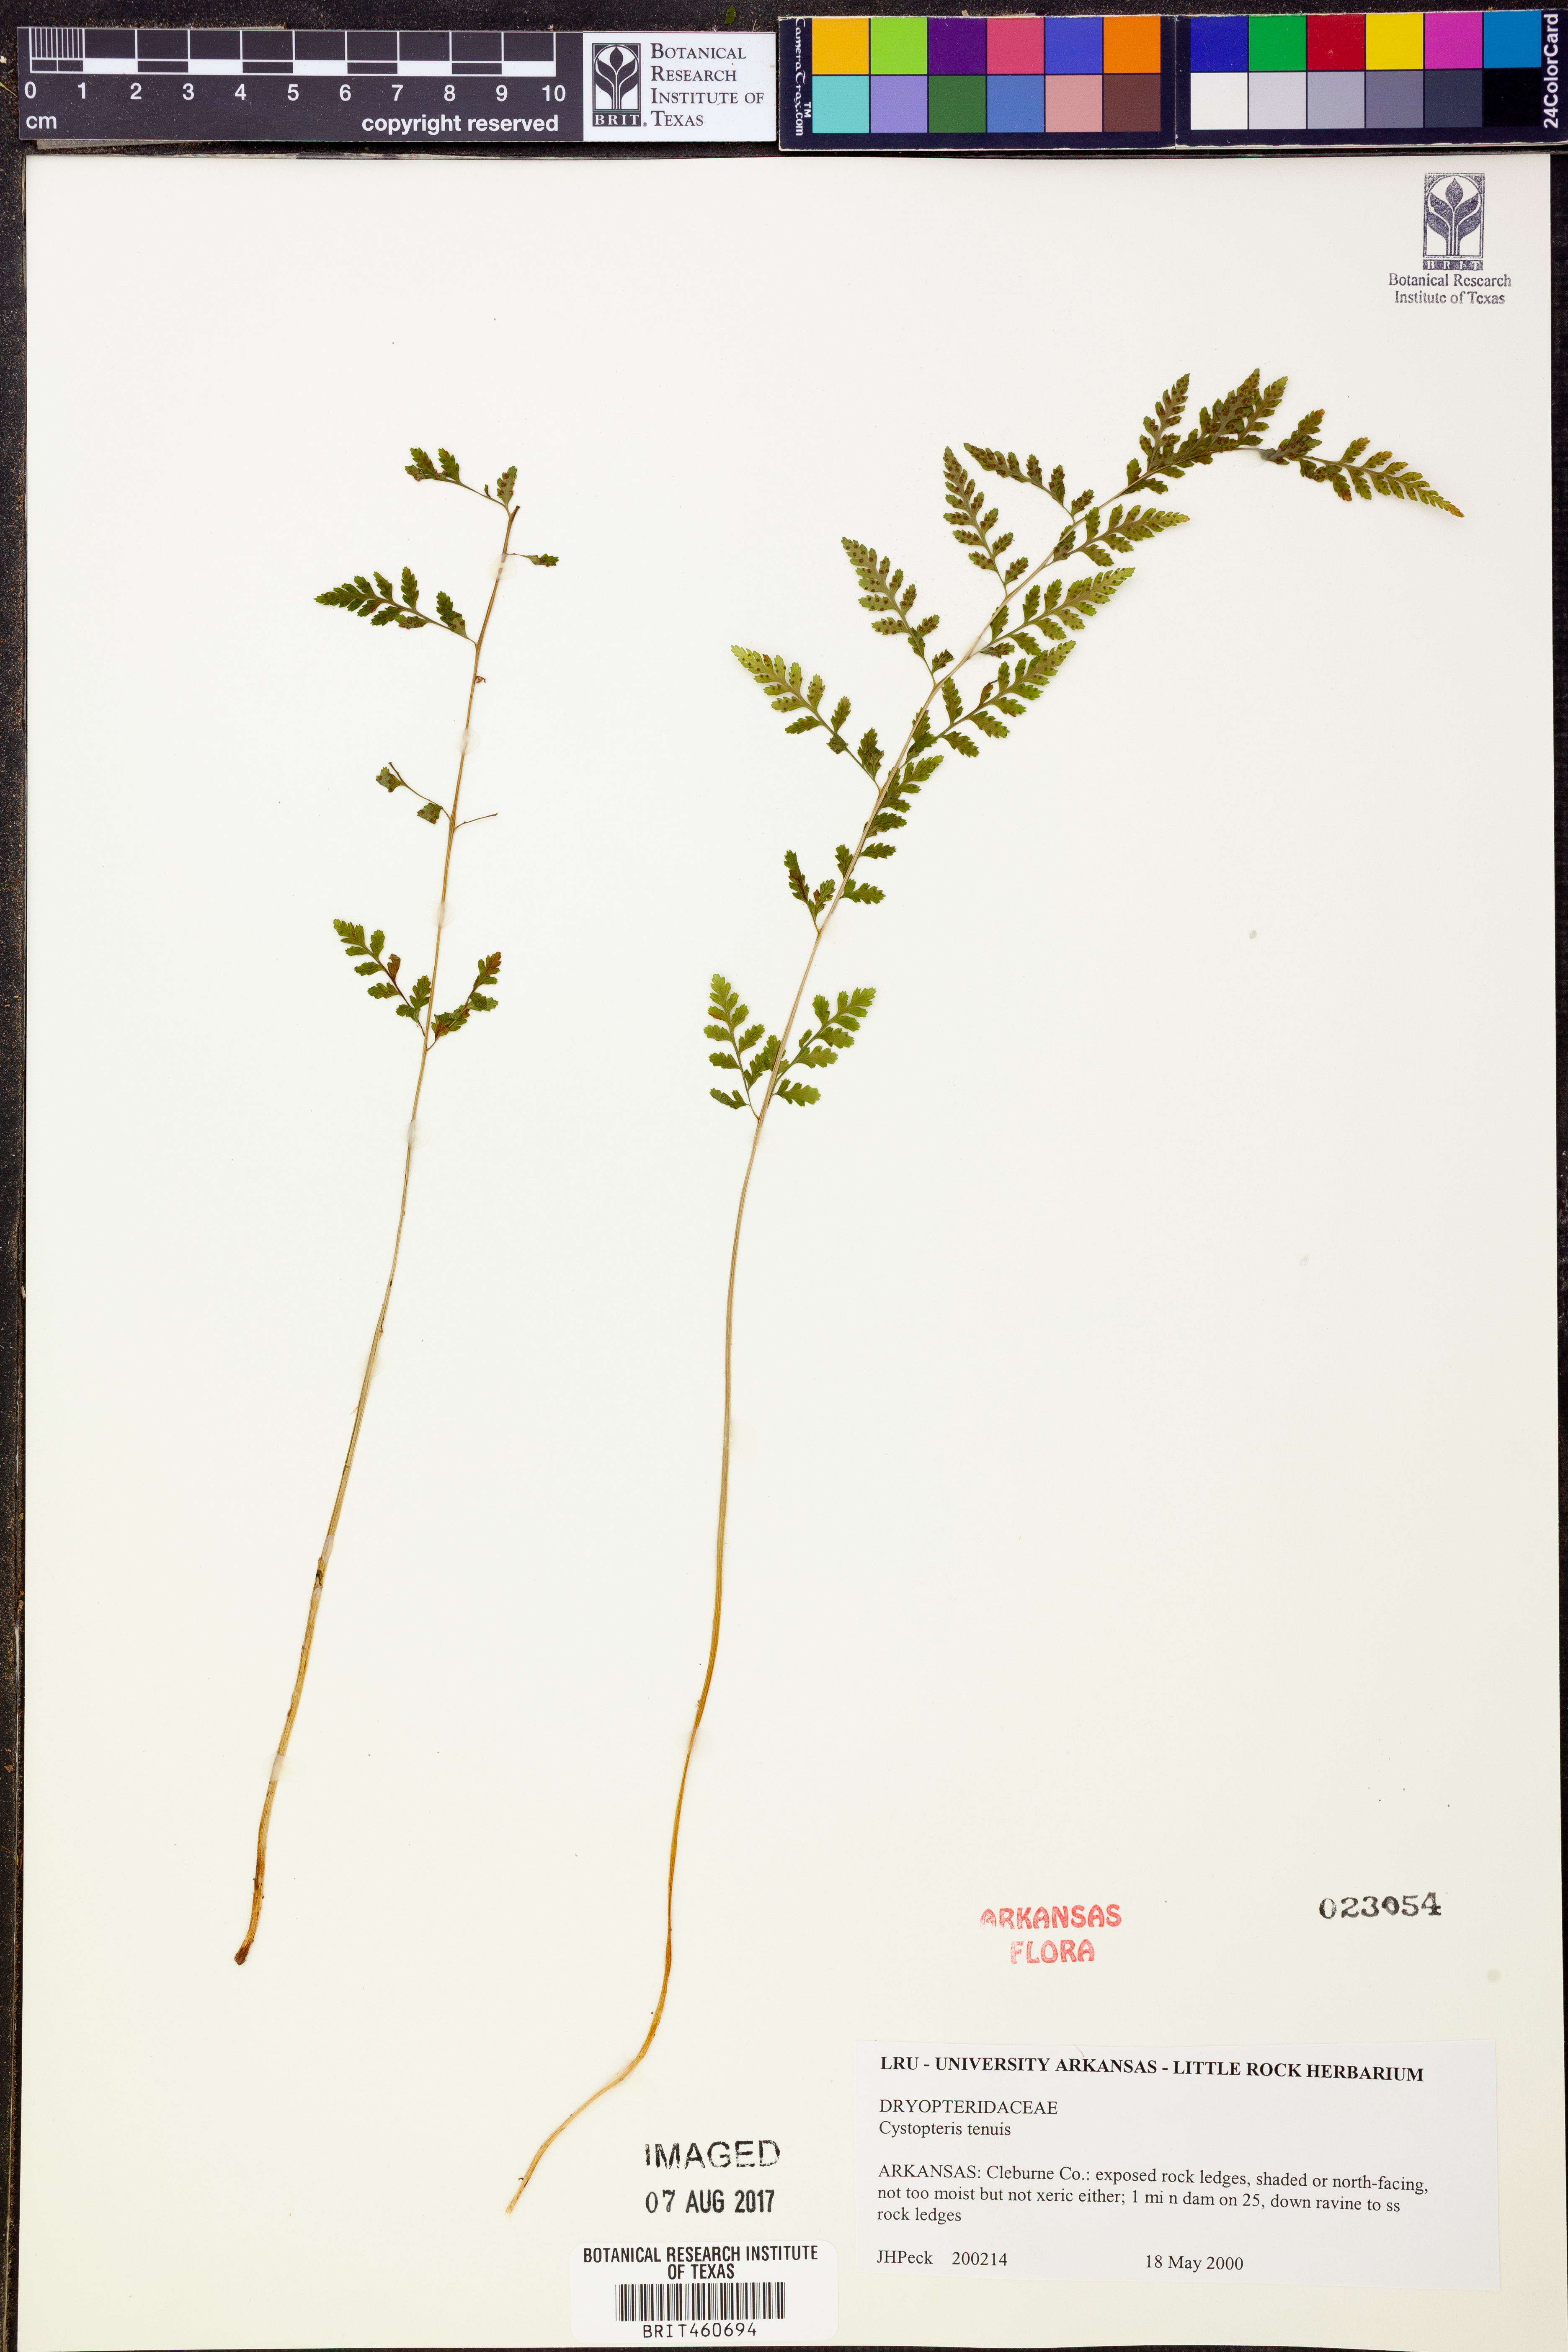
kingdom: Plantae
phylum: Tracheophyta
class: Polypodiopsida
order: Polypodiales
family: Cystopteridaceae
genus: Cystopteris
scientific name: Cystopteris tenuis
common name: Mackay's brittle fern
